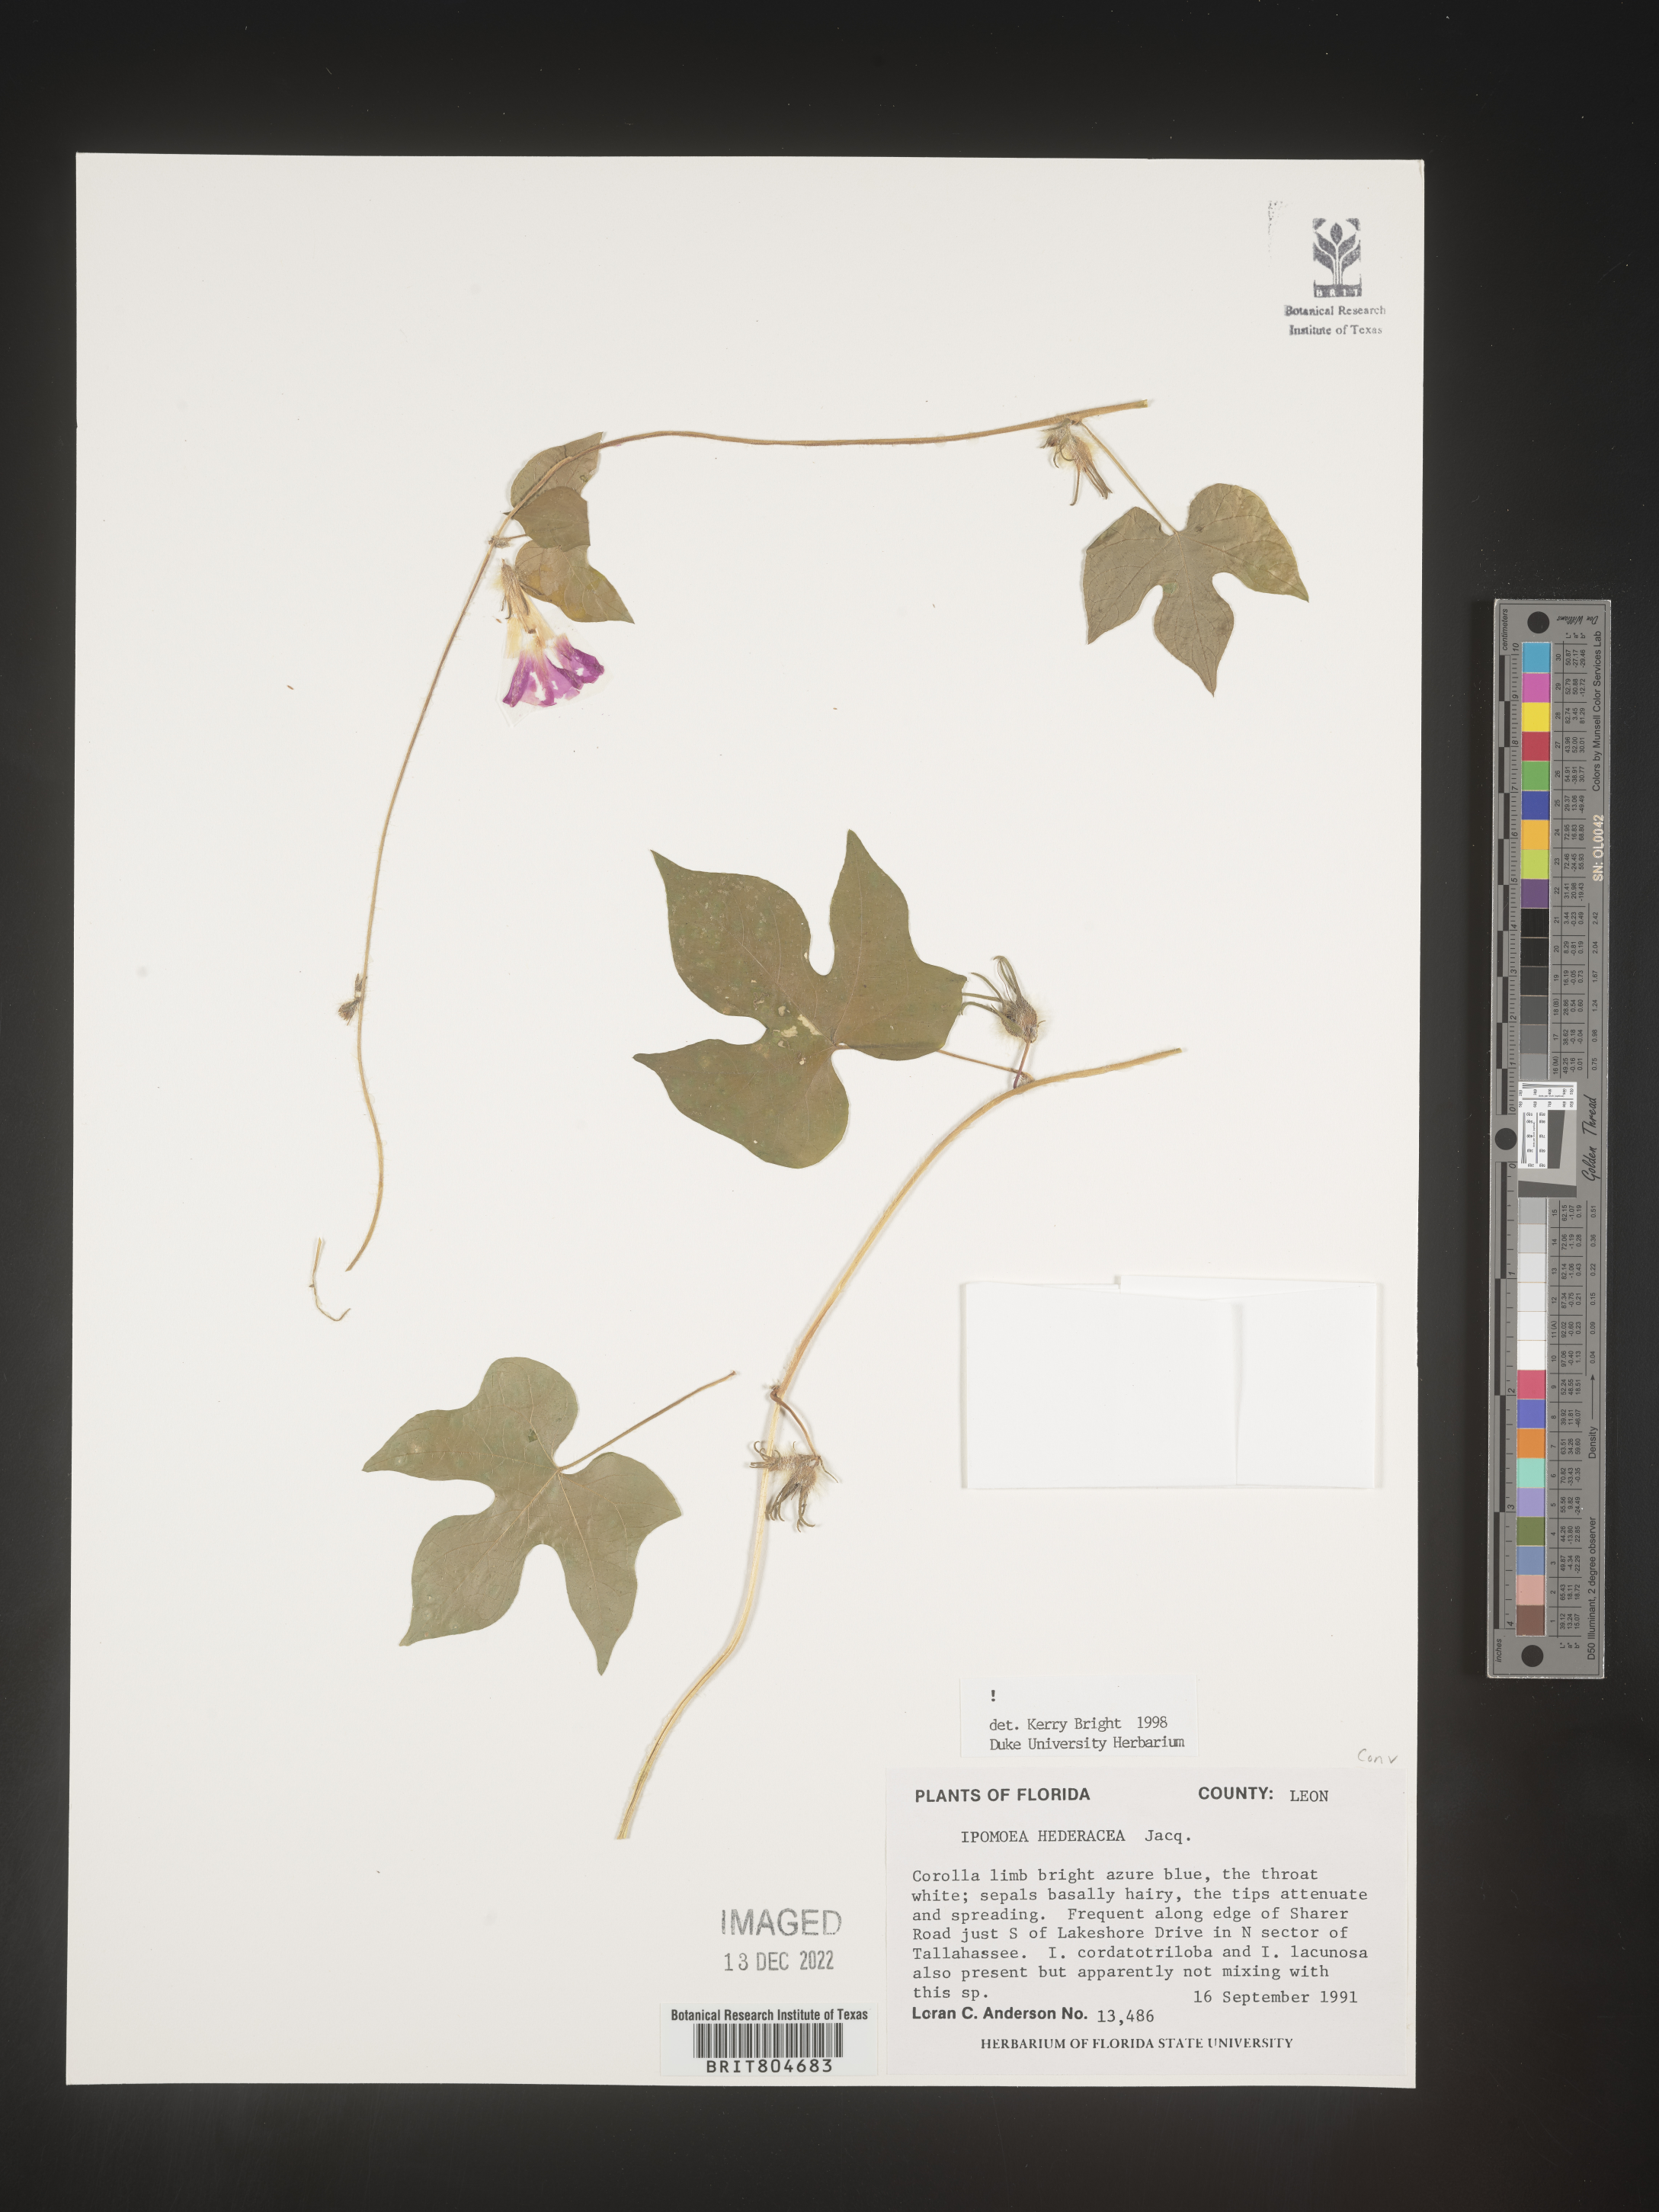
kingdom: Plantae
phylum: Tracheophyta
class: Magnoliopsida
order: Solanales
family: Convolvulaceae
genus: Ipomoea
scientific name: Ipomoea hederacea
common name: Ivy-leaved morning-glory
